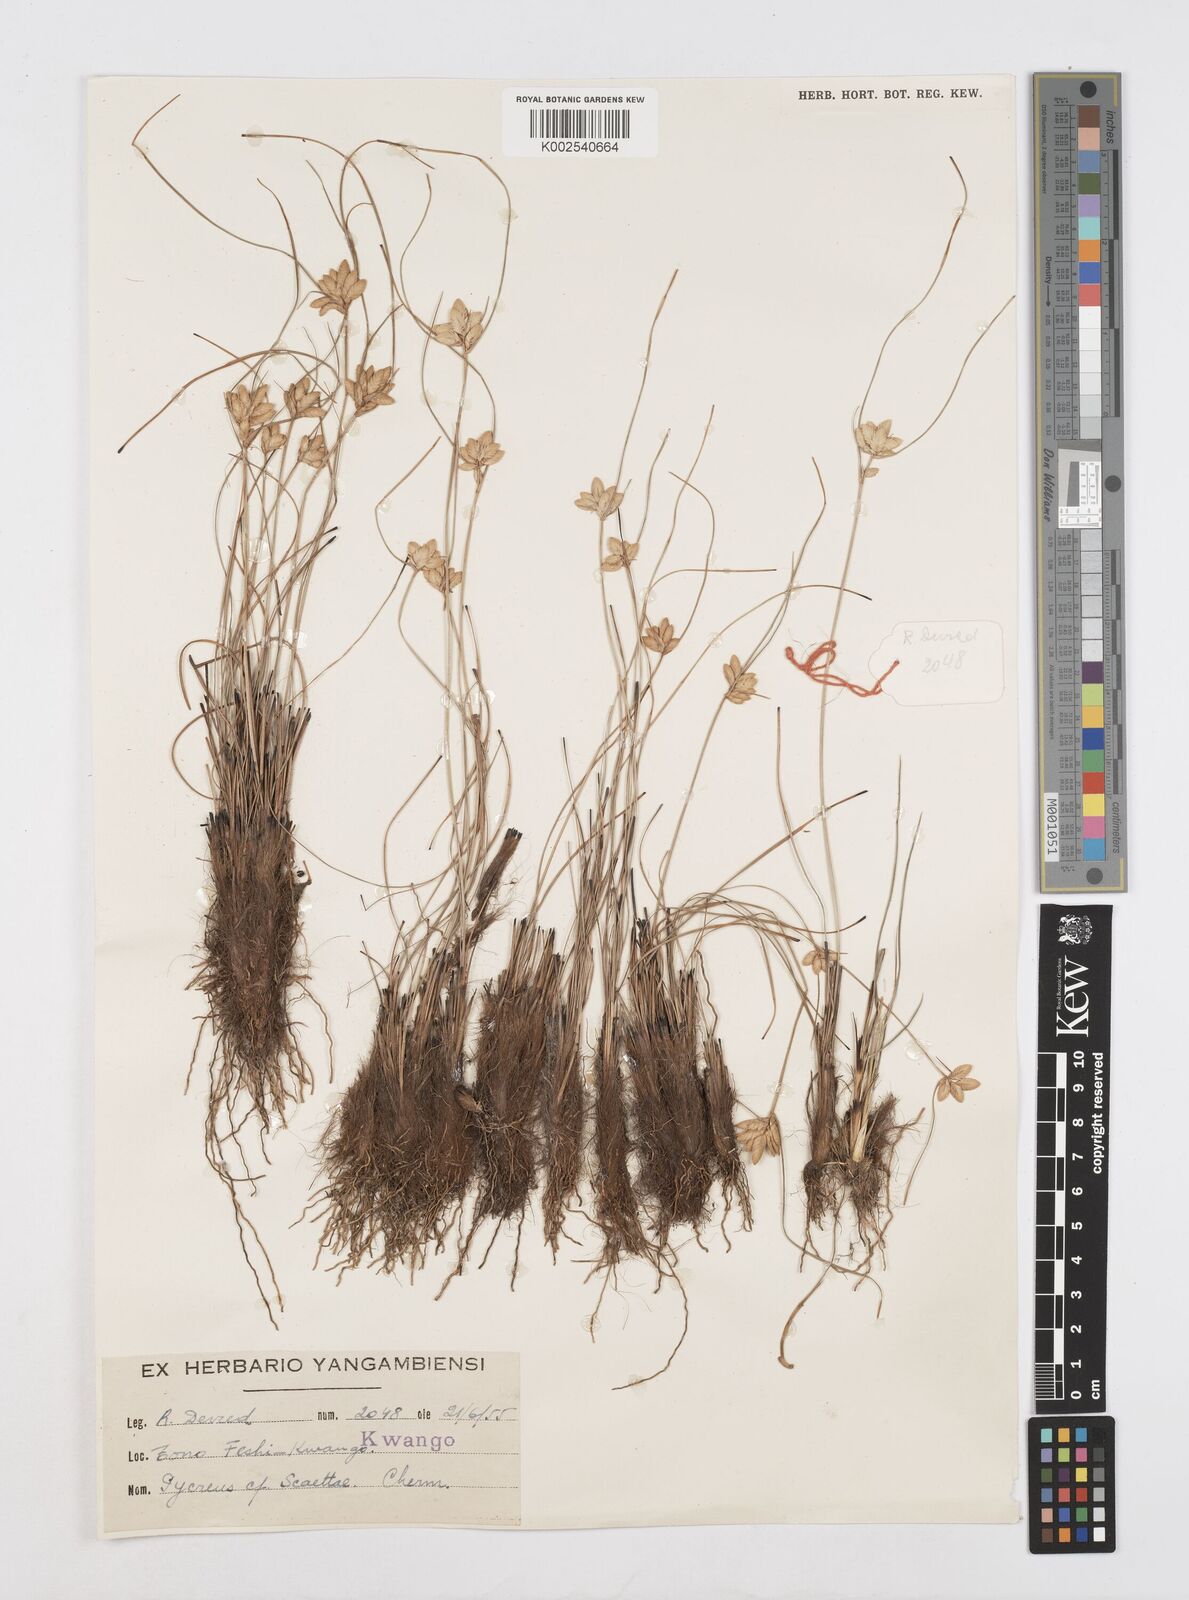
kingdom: Plantae
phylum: Tracheophyta
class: Liliopsida
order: Poales
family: Cyperaceae
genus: Cyperus
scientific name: Cyperus scaettae
